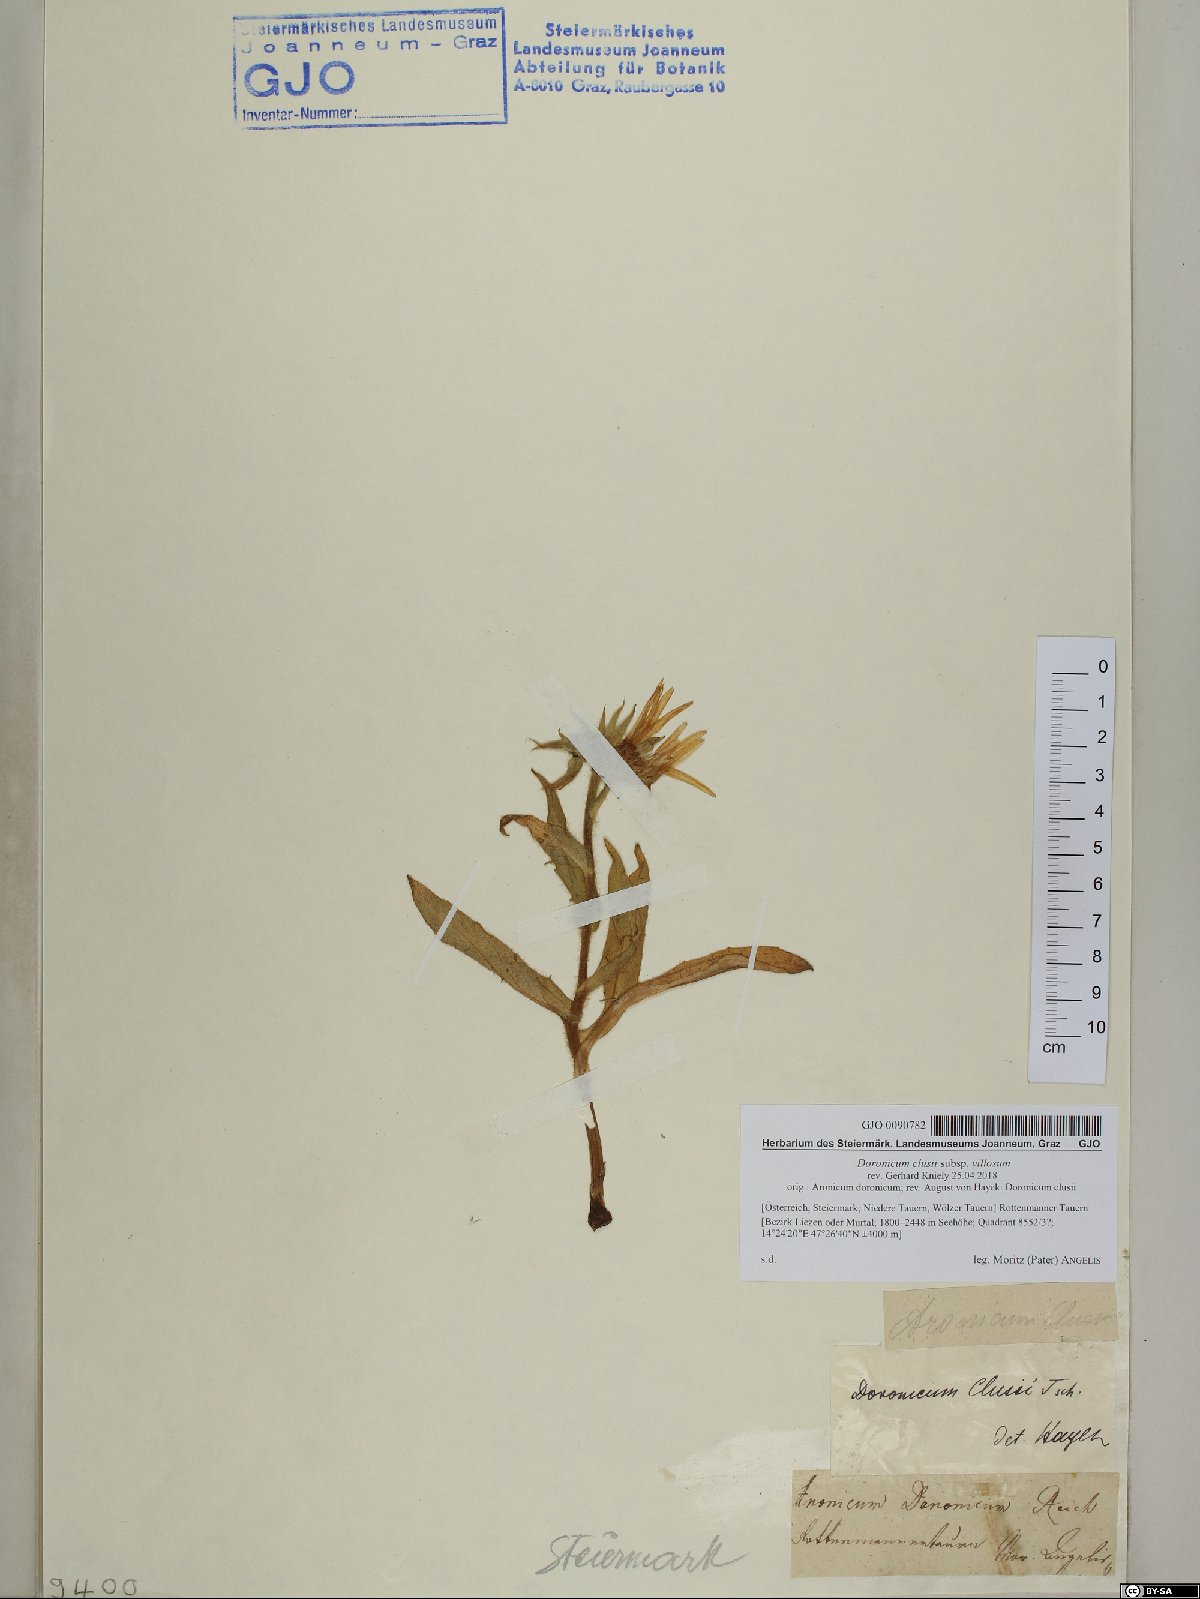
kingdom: Plantae
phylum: Tracheophyta
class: Magnoliopsida
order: Asterales
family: Asteraceae
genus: Doronicum
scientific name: Doronicum clusii
